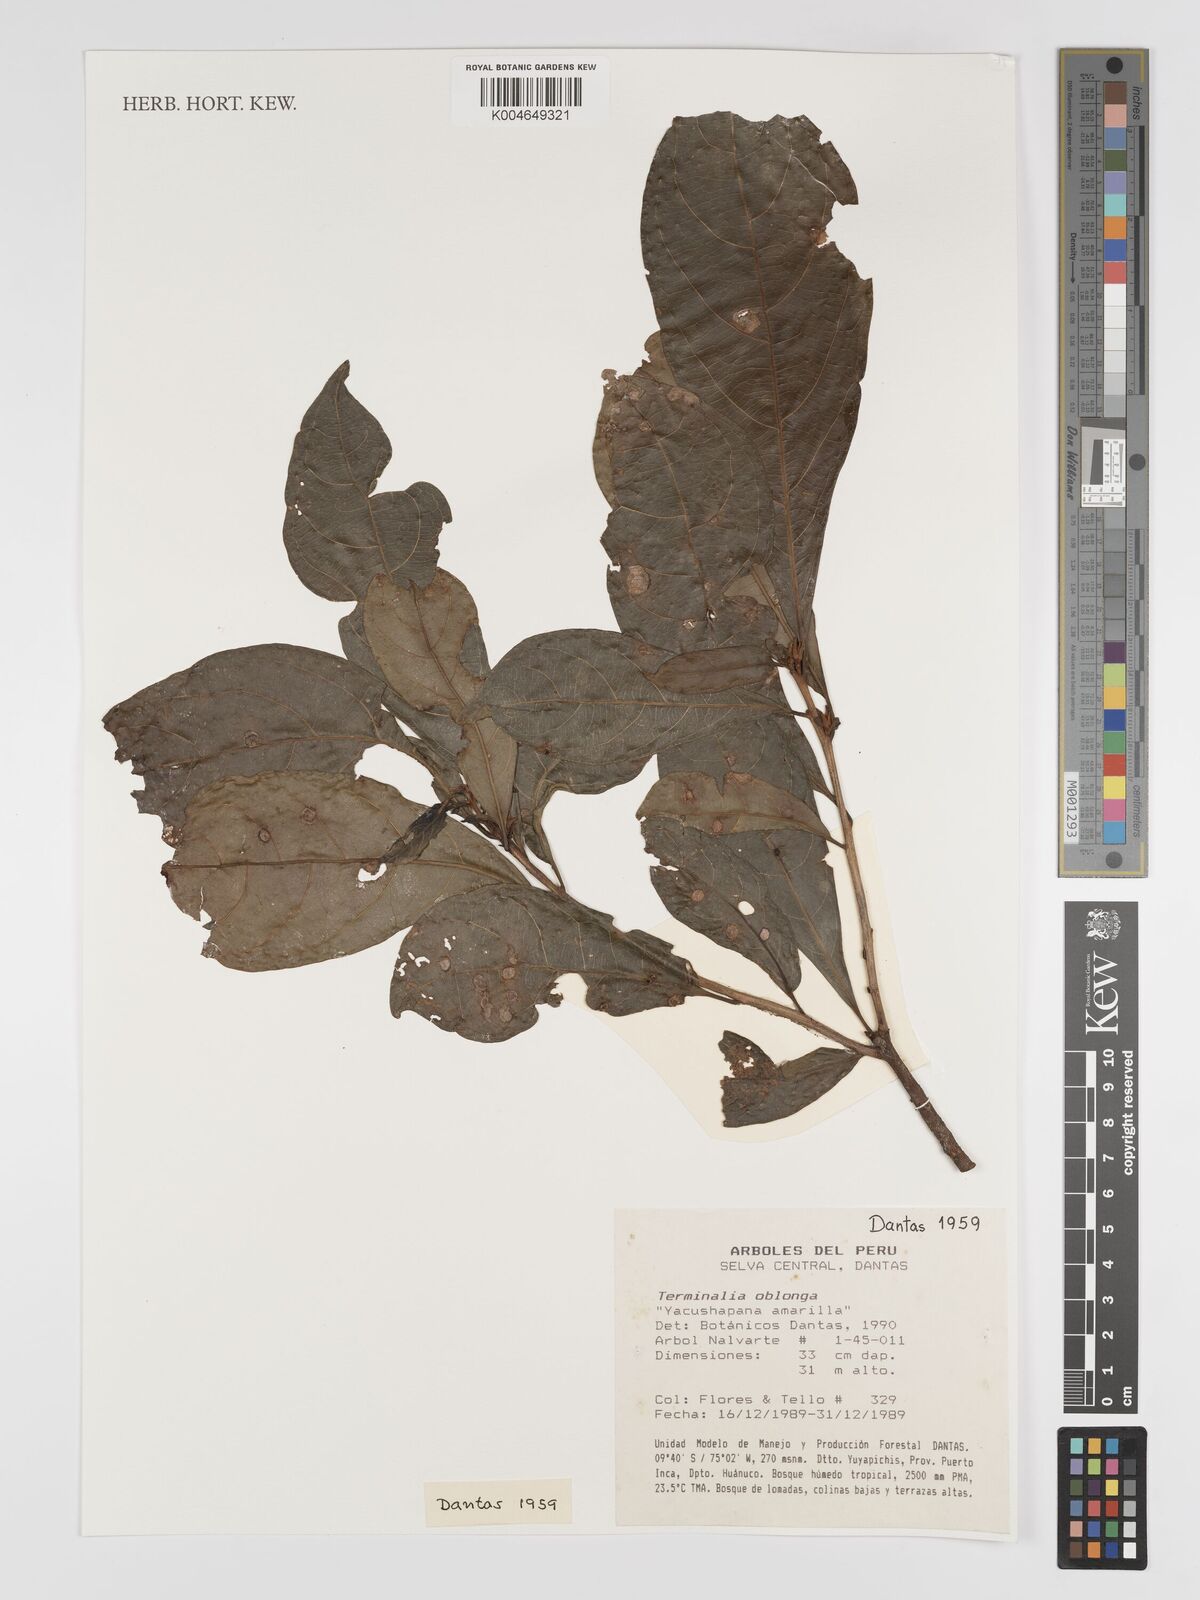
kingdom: Plantae
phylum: Tracheophyta
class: Magnoliopsida
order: Myrtales
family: Combretaceae
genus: Terminalia
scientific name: Terminalia oblonga
